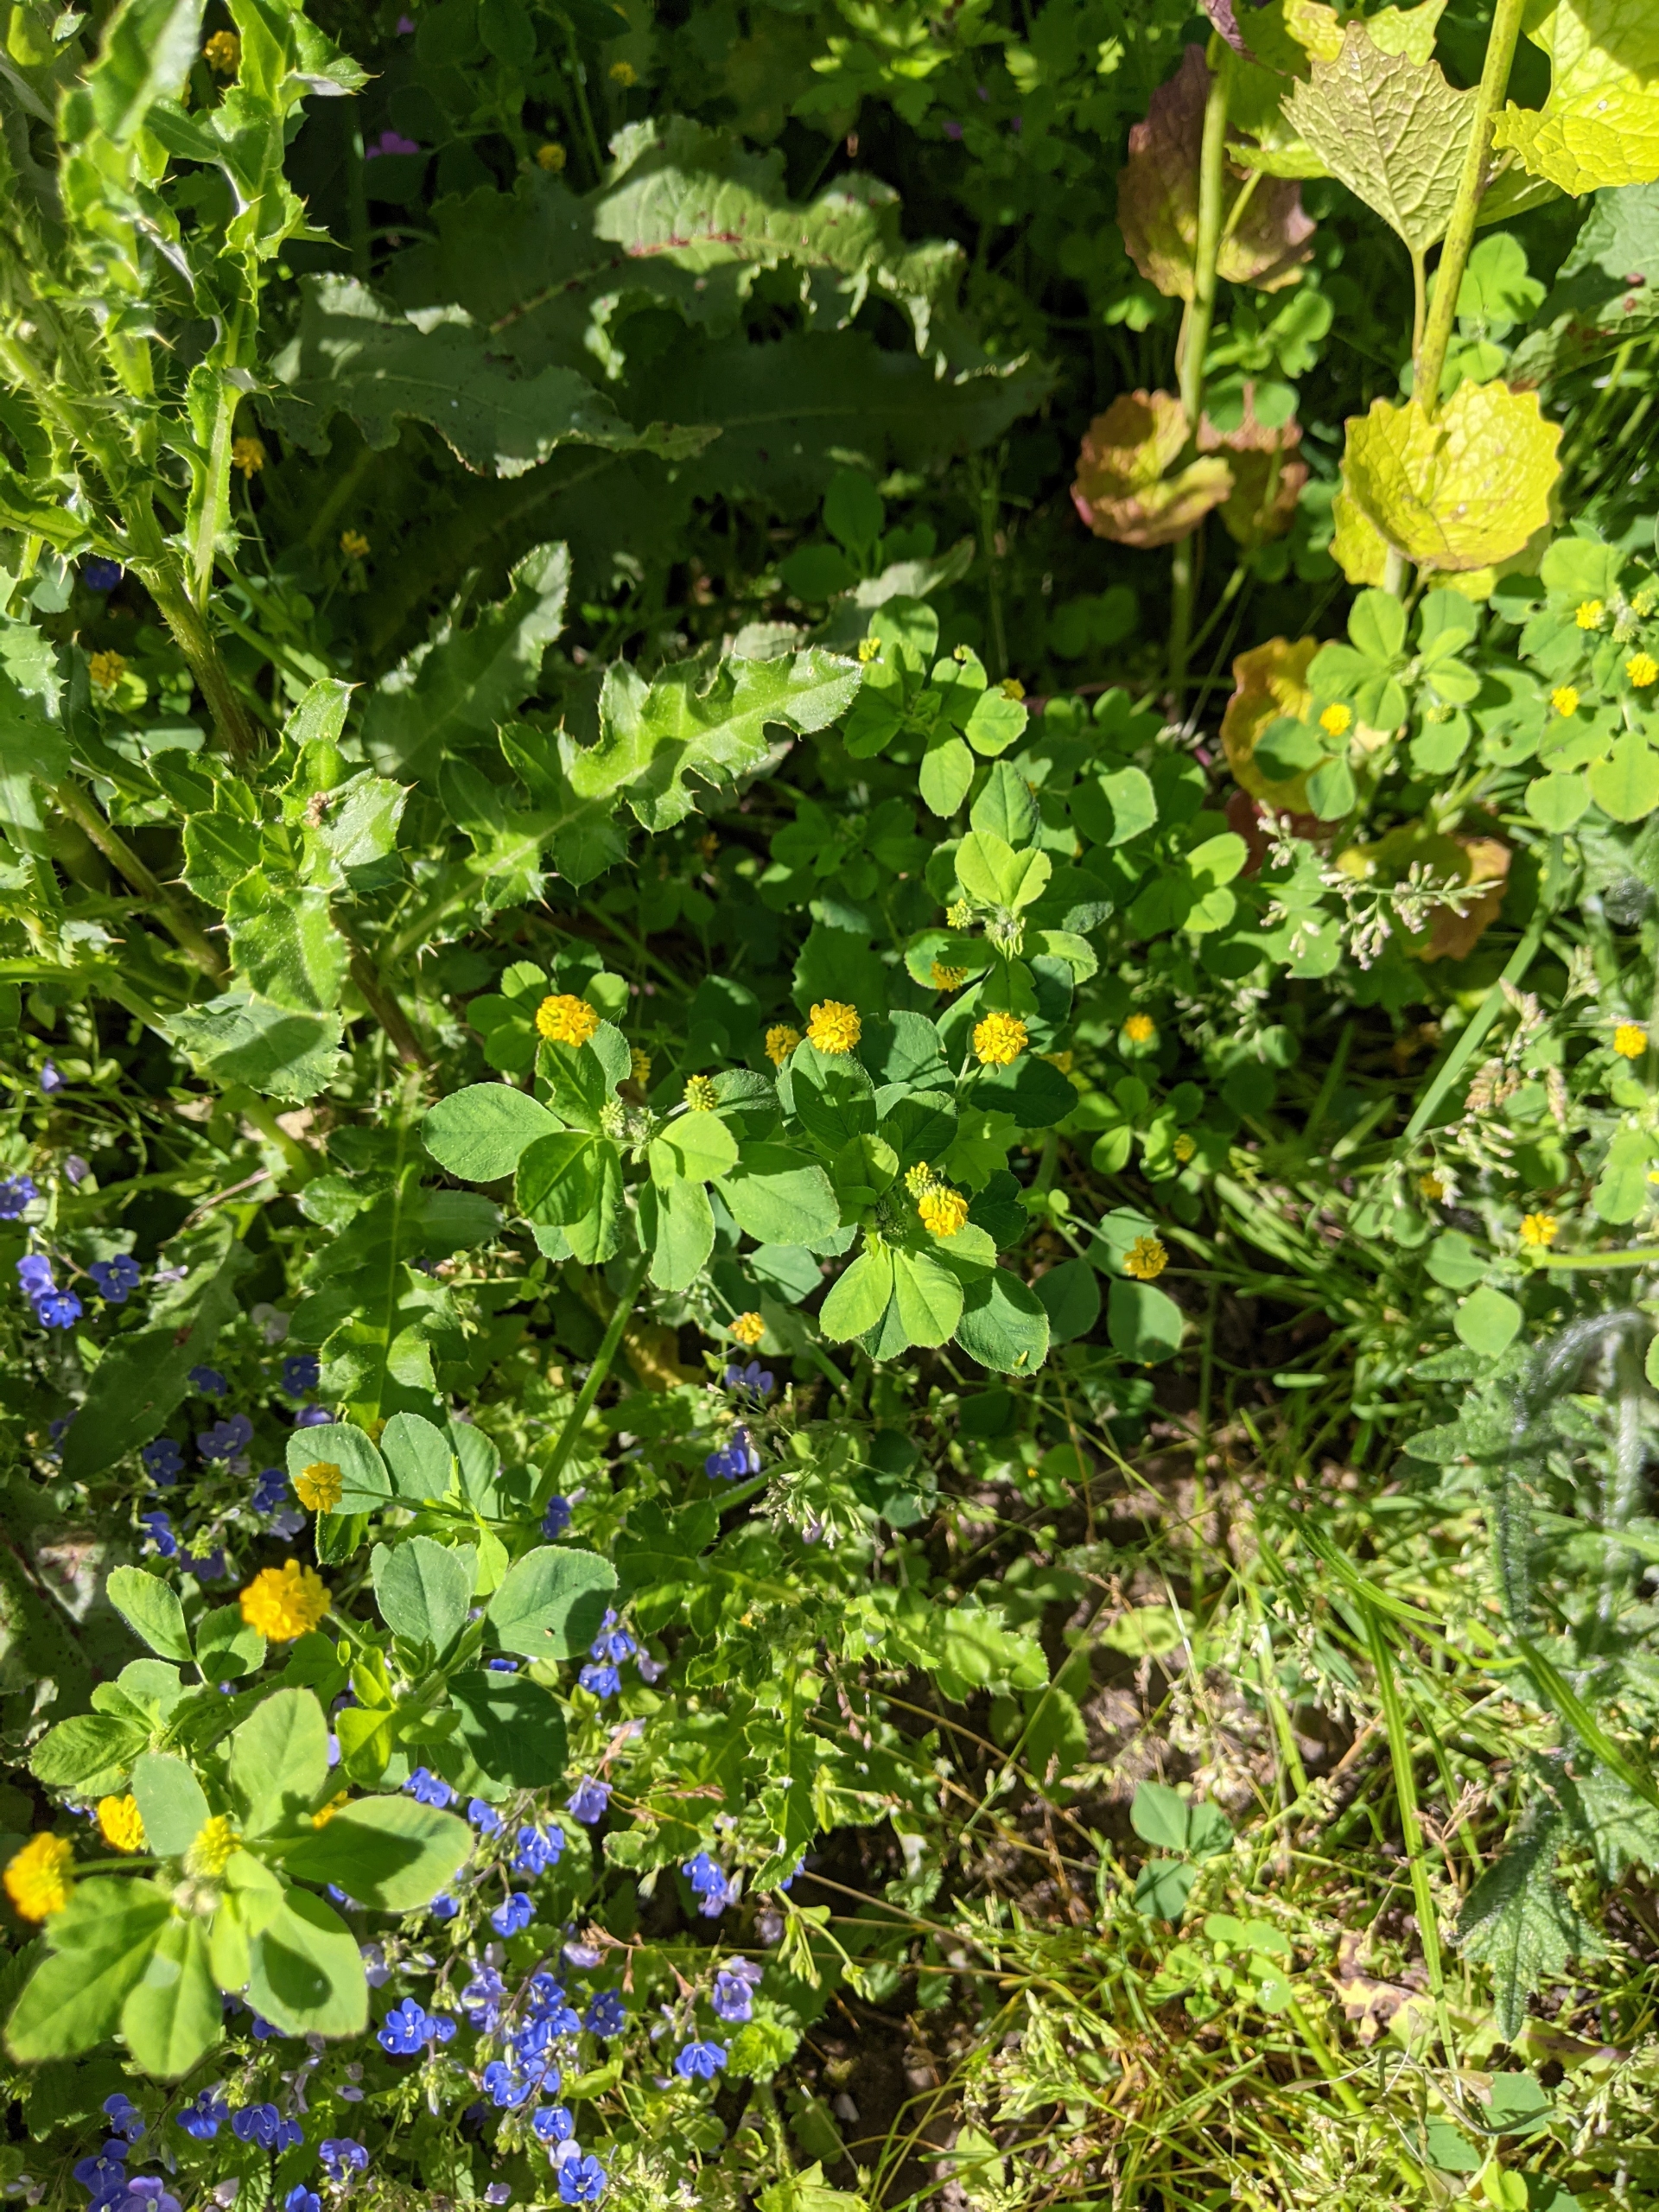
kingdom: Plantae
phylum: Tracheophyta
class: Magnoliopsida
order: Fabales
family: Fabaceae
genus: Medicago
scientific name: Medicago lupulina
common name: Humle-sneglebælg
